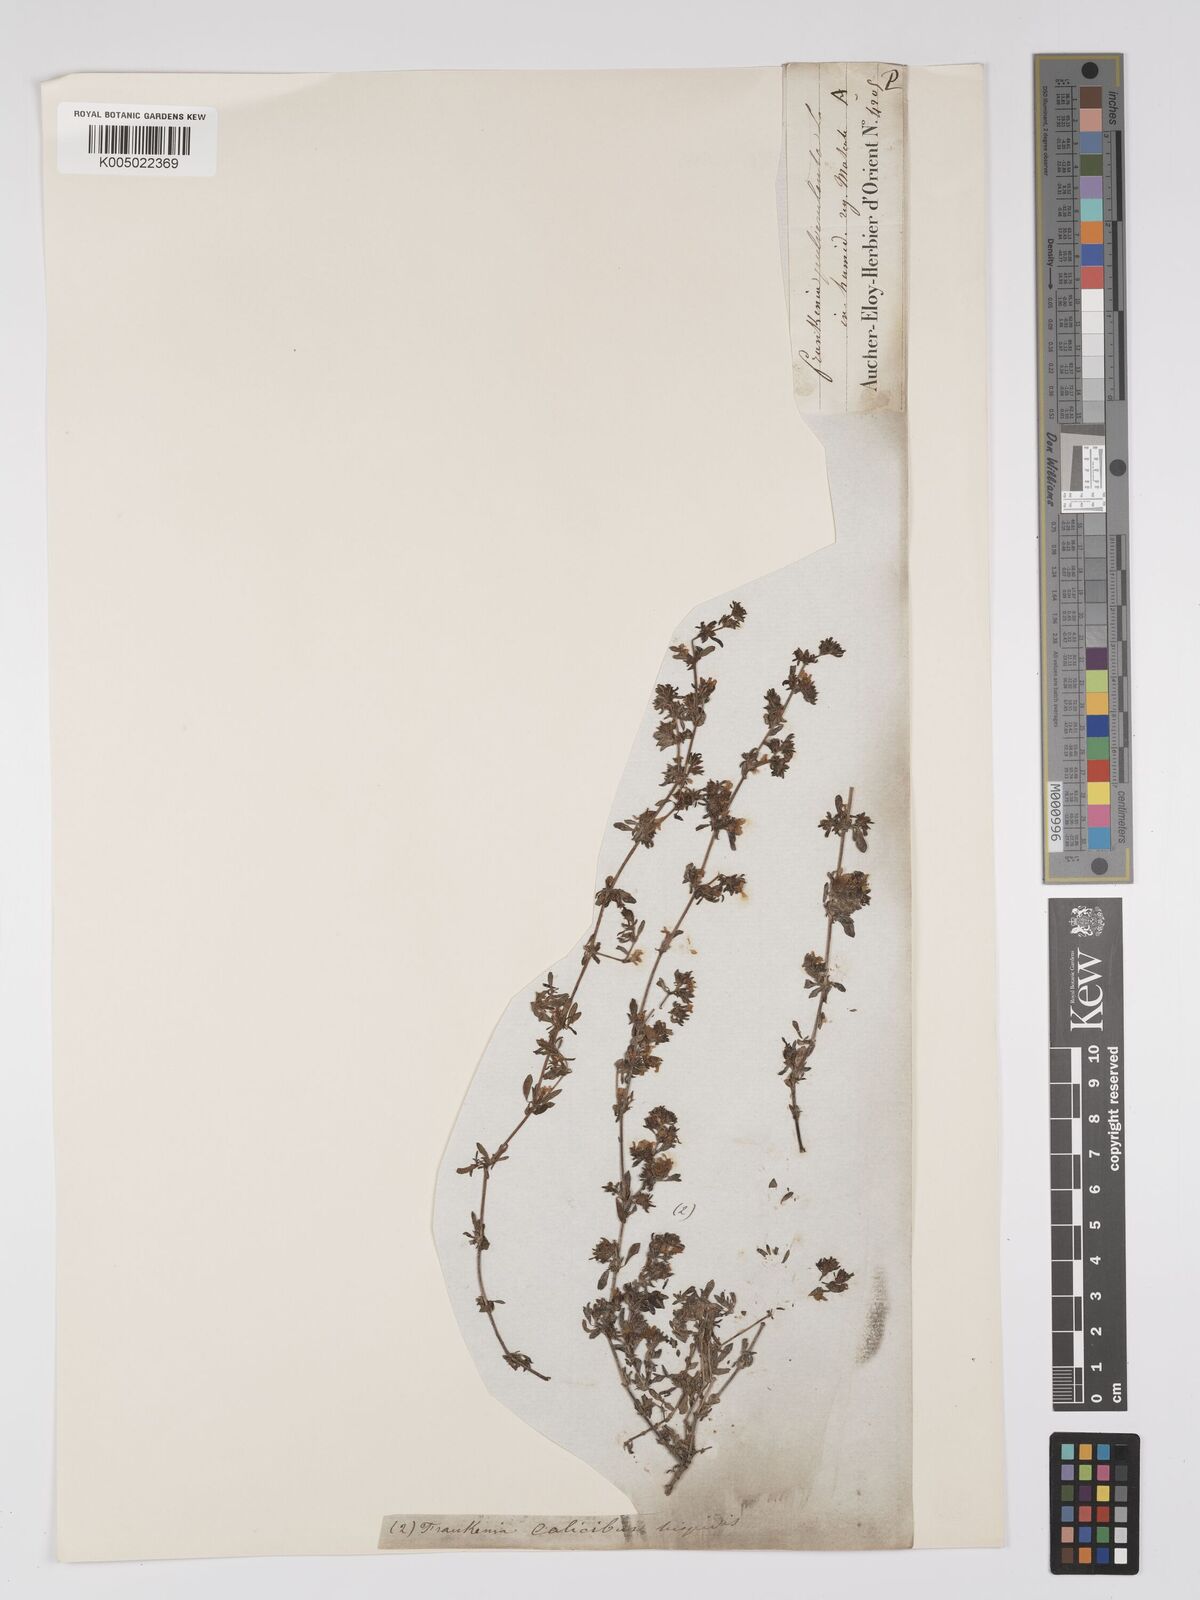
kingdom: Plantae
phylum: Tracheophyta
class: Magnoliopsida
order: Caryophyllales
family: Frankeniaceae
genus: Frankenia
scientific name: Frankenia pulverulenta
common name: European seaheath
